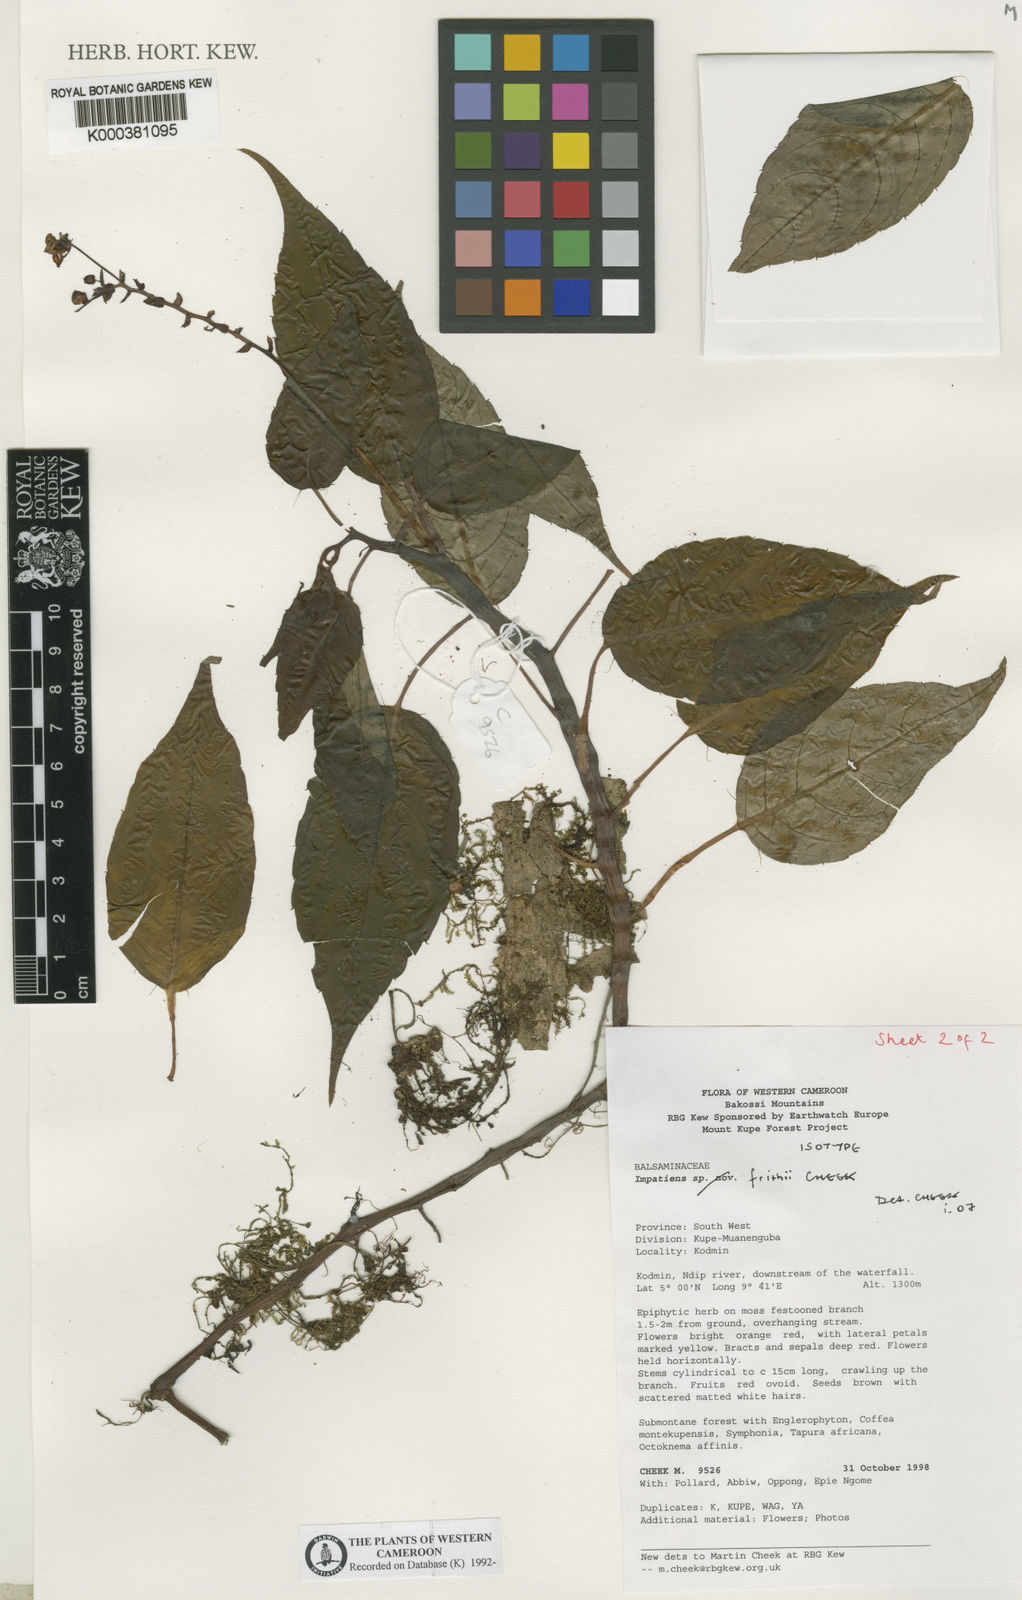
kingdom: Plantae
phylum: Tracheophyta
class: Magnoliopsida
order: Ericales
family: Balsaminaceae
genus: Impatiens
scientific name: Impatiens frithii
